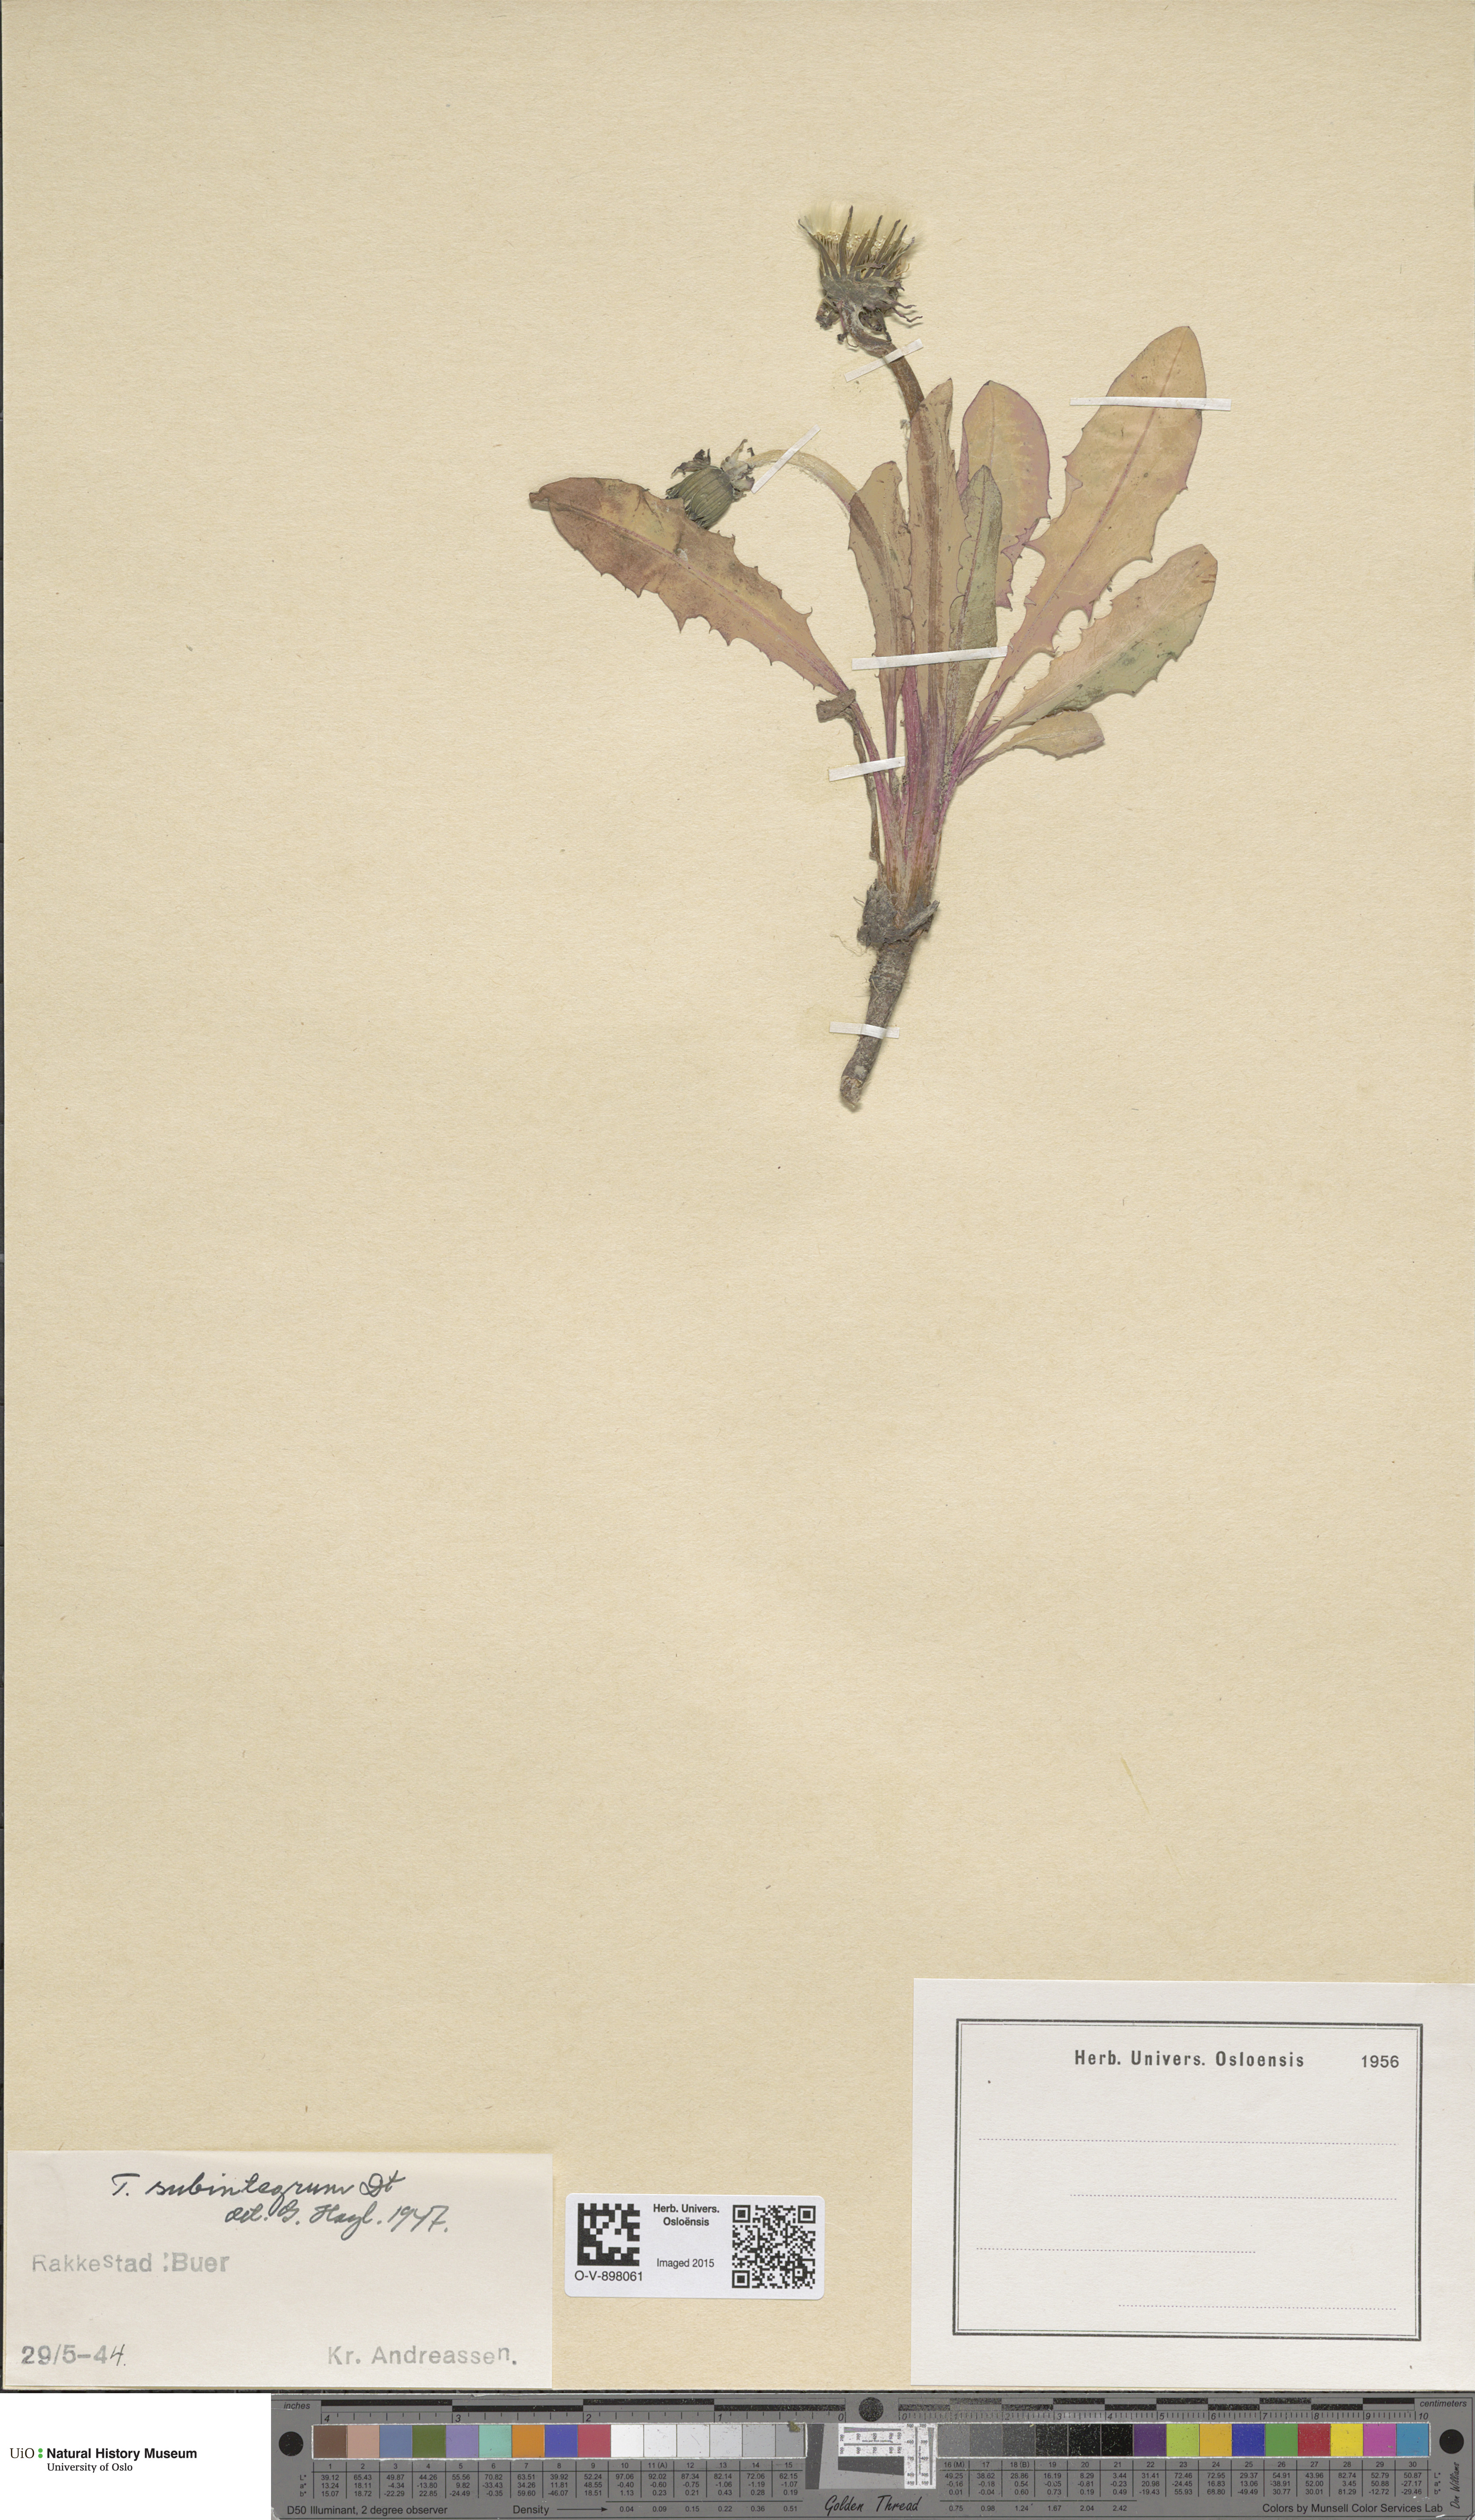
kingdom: Plantae
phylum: Tracheophyta
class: Magnoliopsida
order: Asterales
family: Asteraceae
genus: Taraxacum
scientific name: Taraxacum subintegrum
